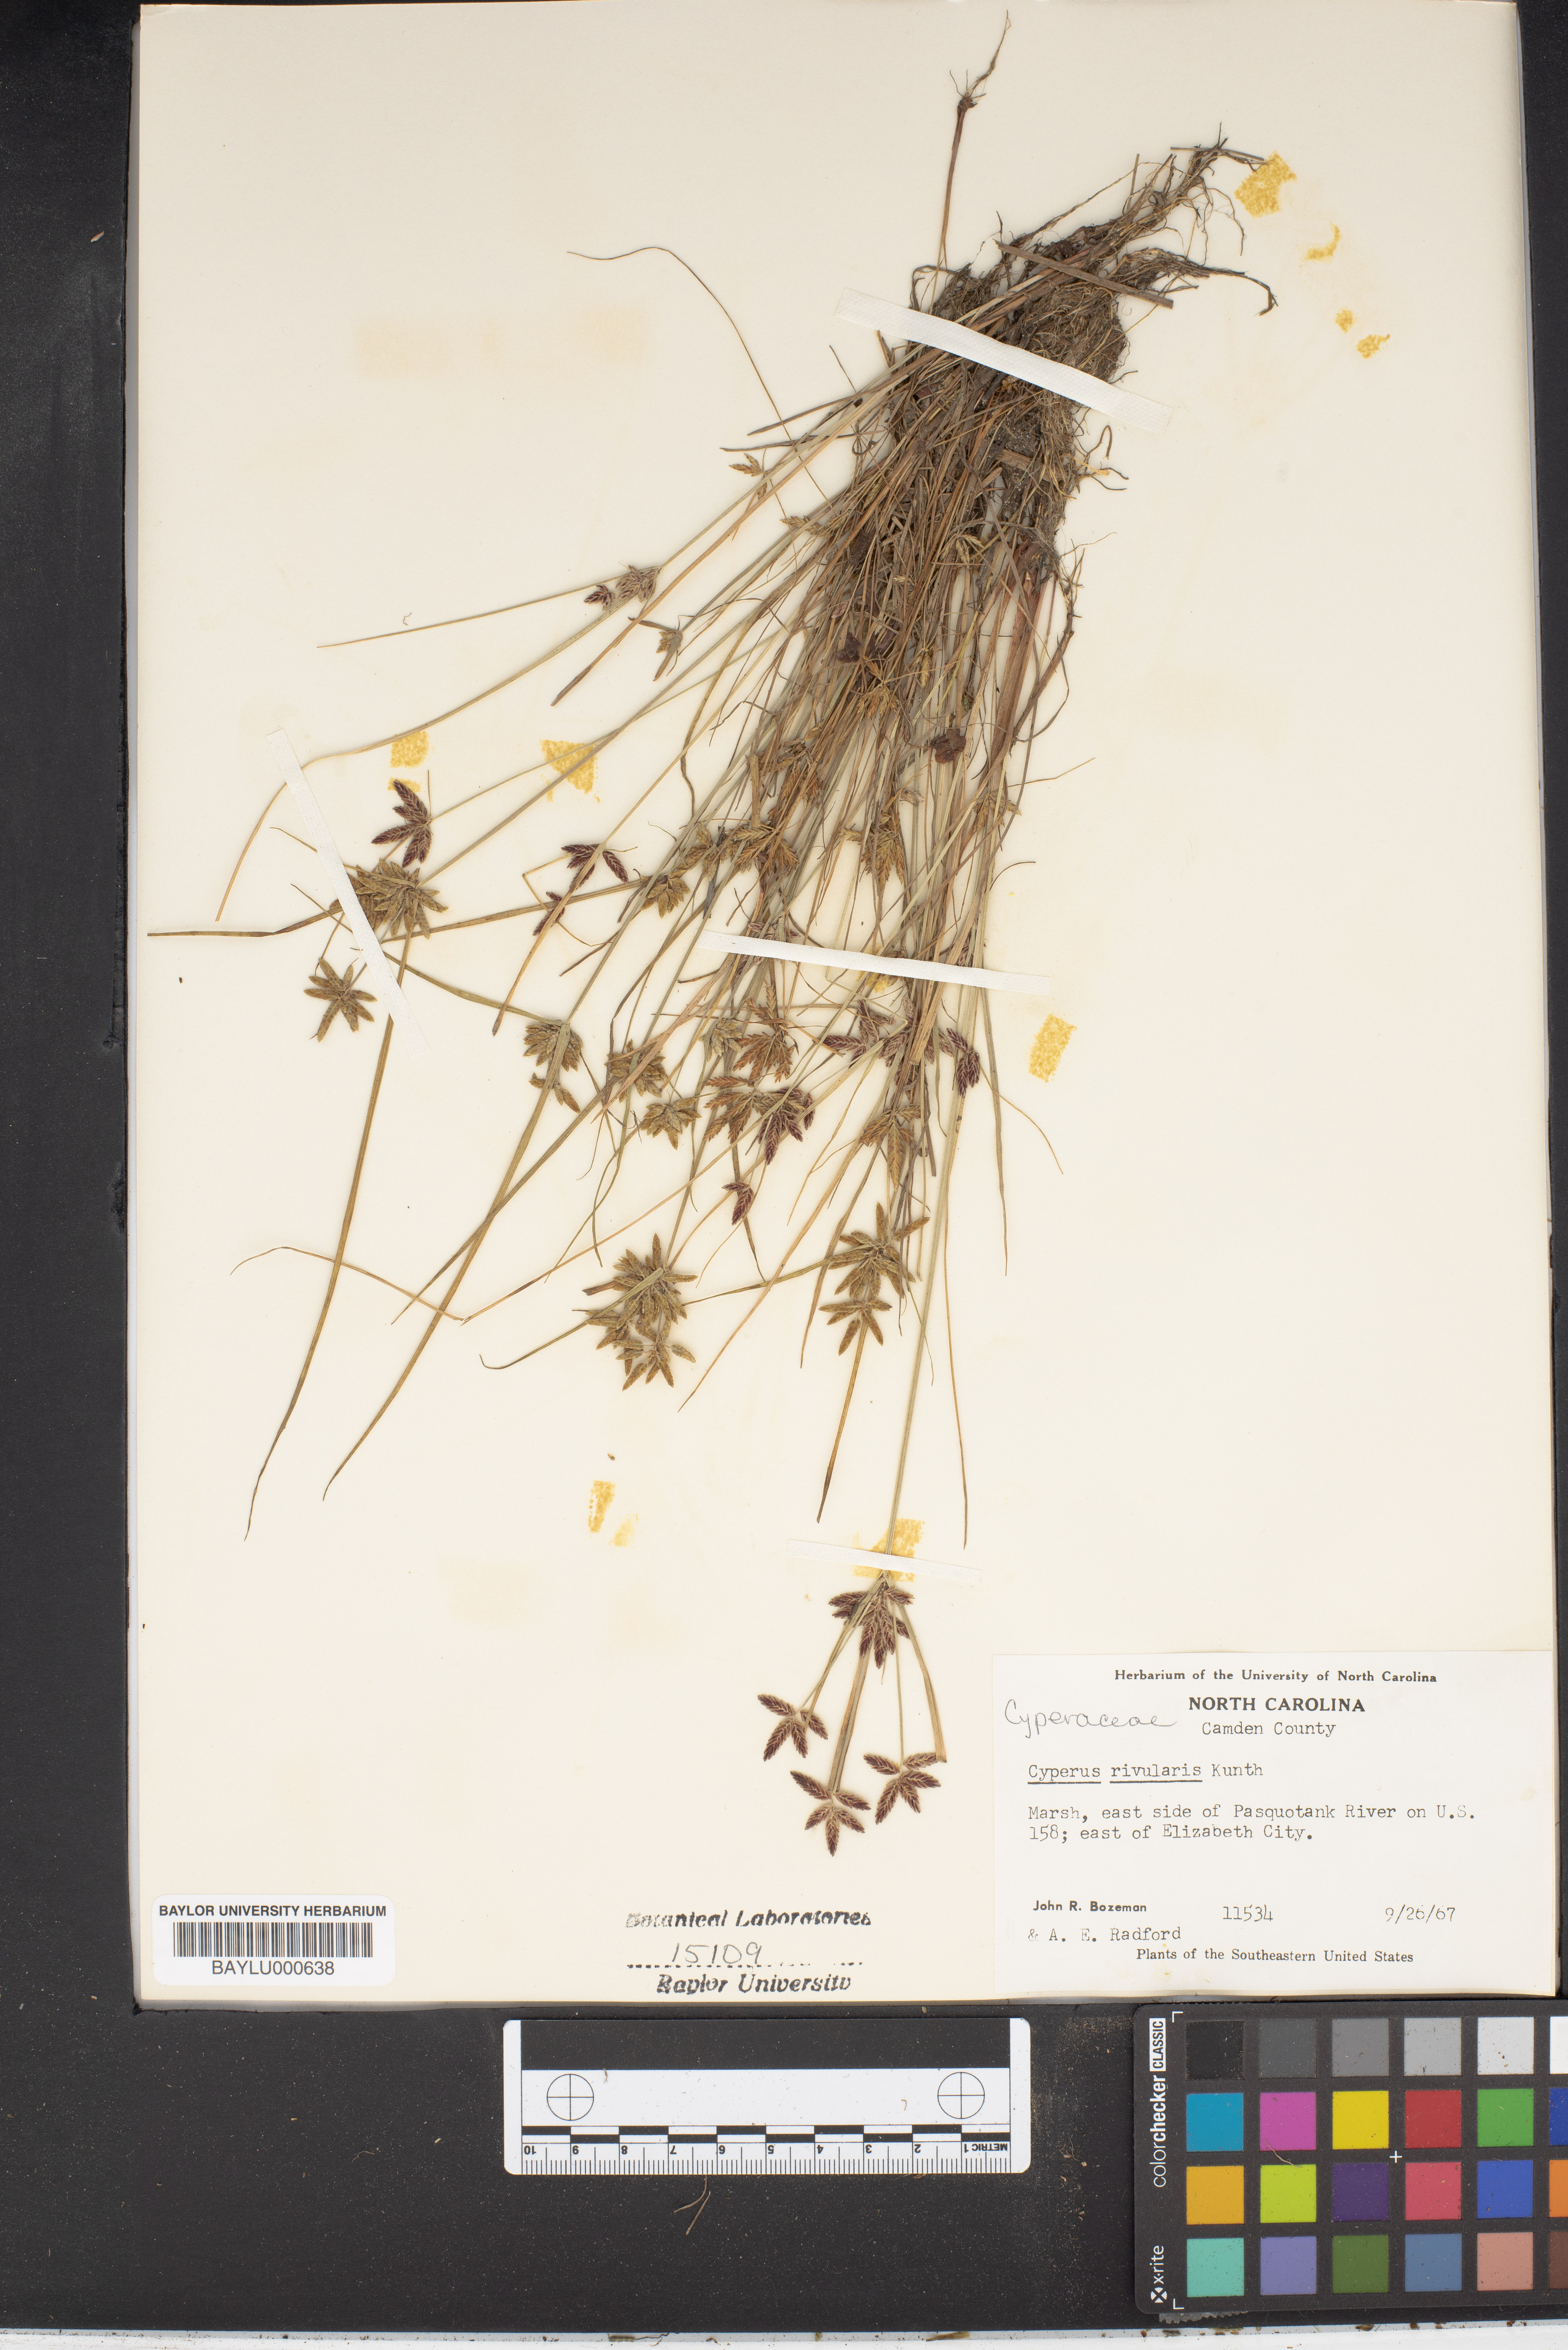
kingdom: Plantae
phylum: Tracheophyta
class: Liliopsida
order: Poales
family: Cyperaceae
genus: Cyperus
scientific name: Cyperus bipartitus
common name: Brook flatsedge
